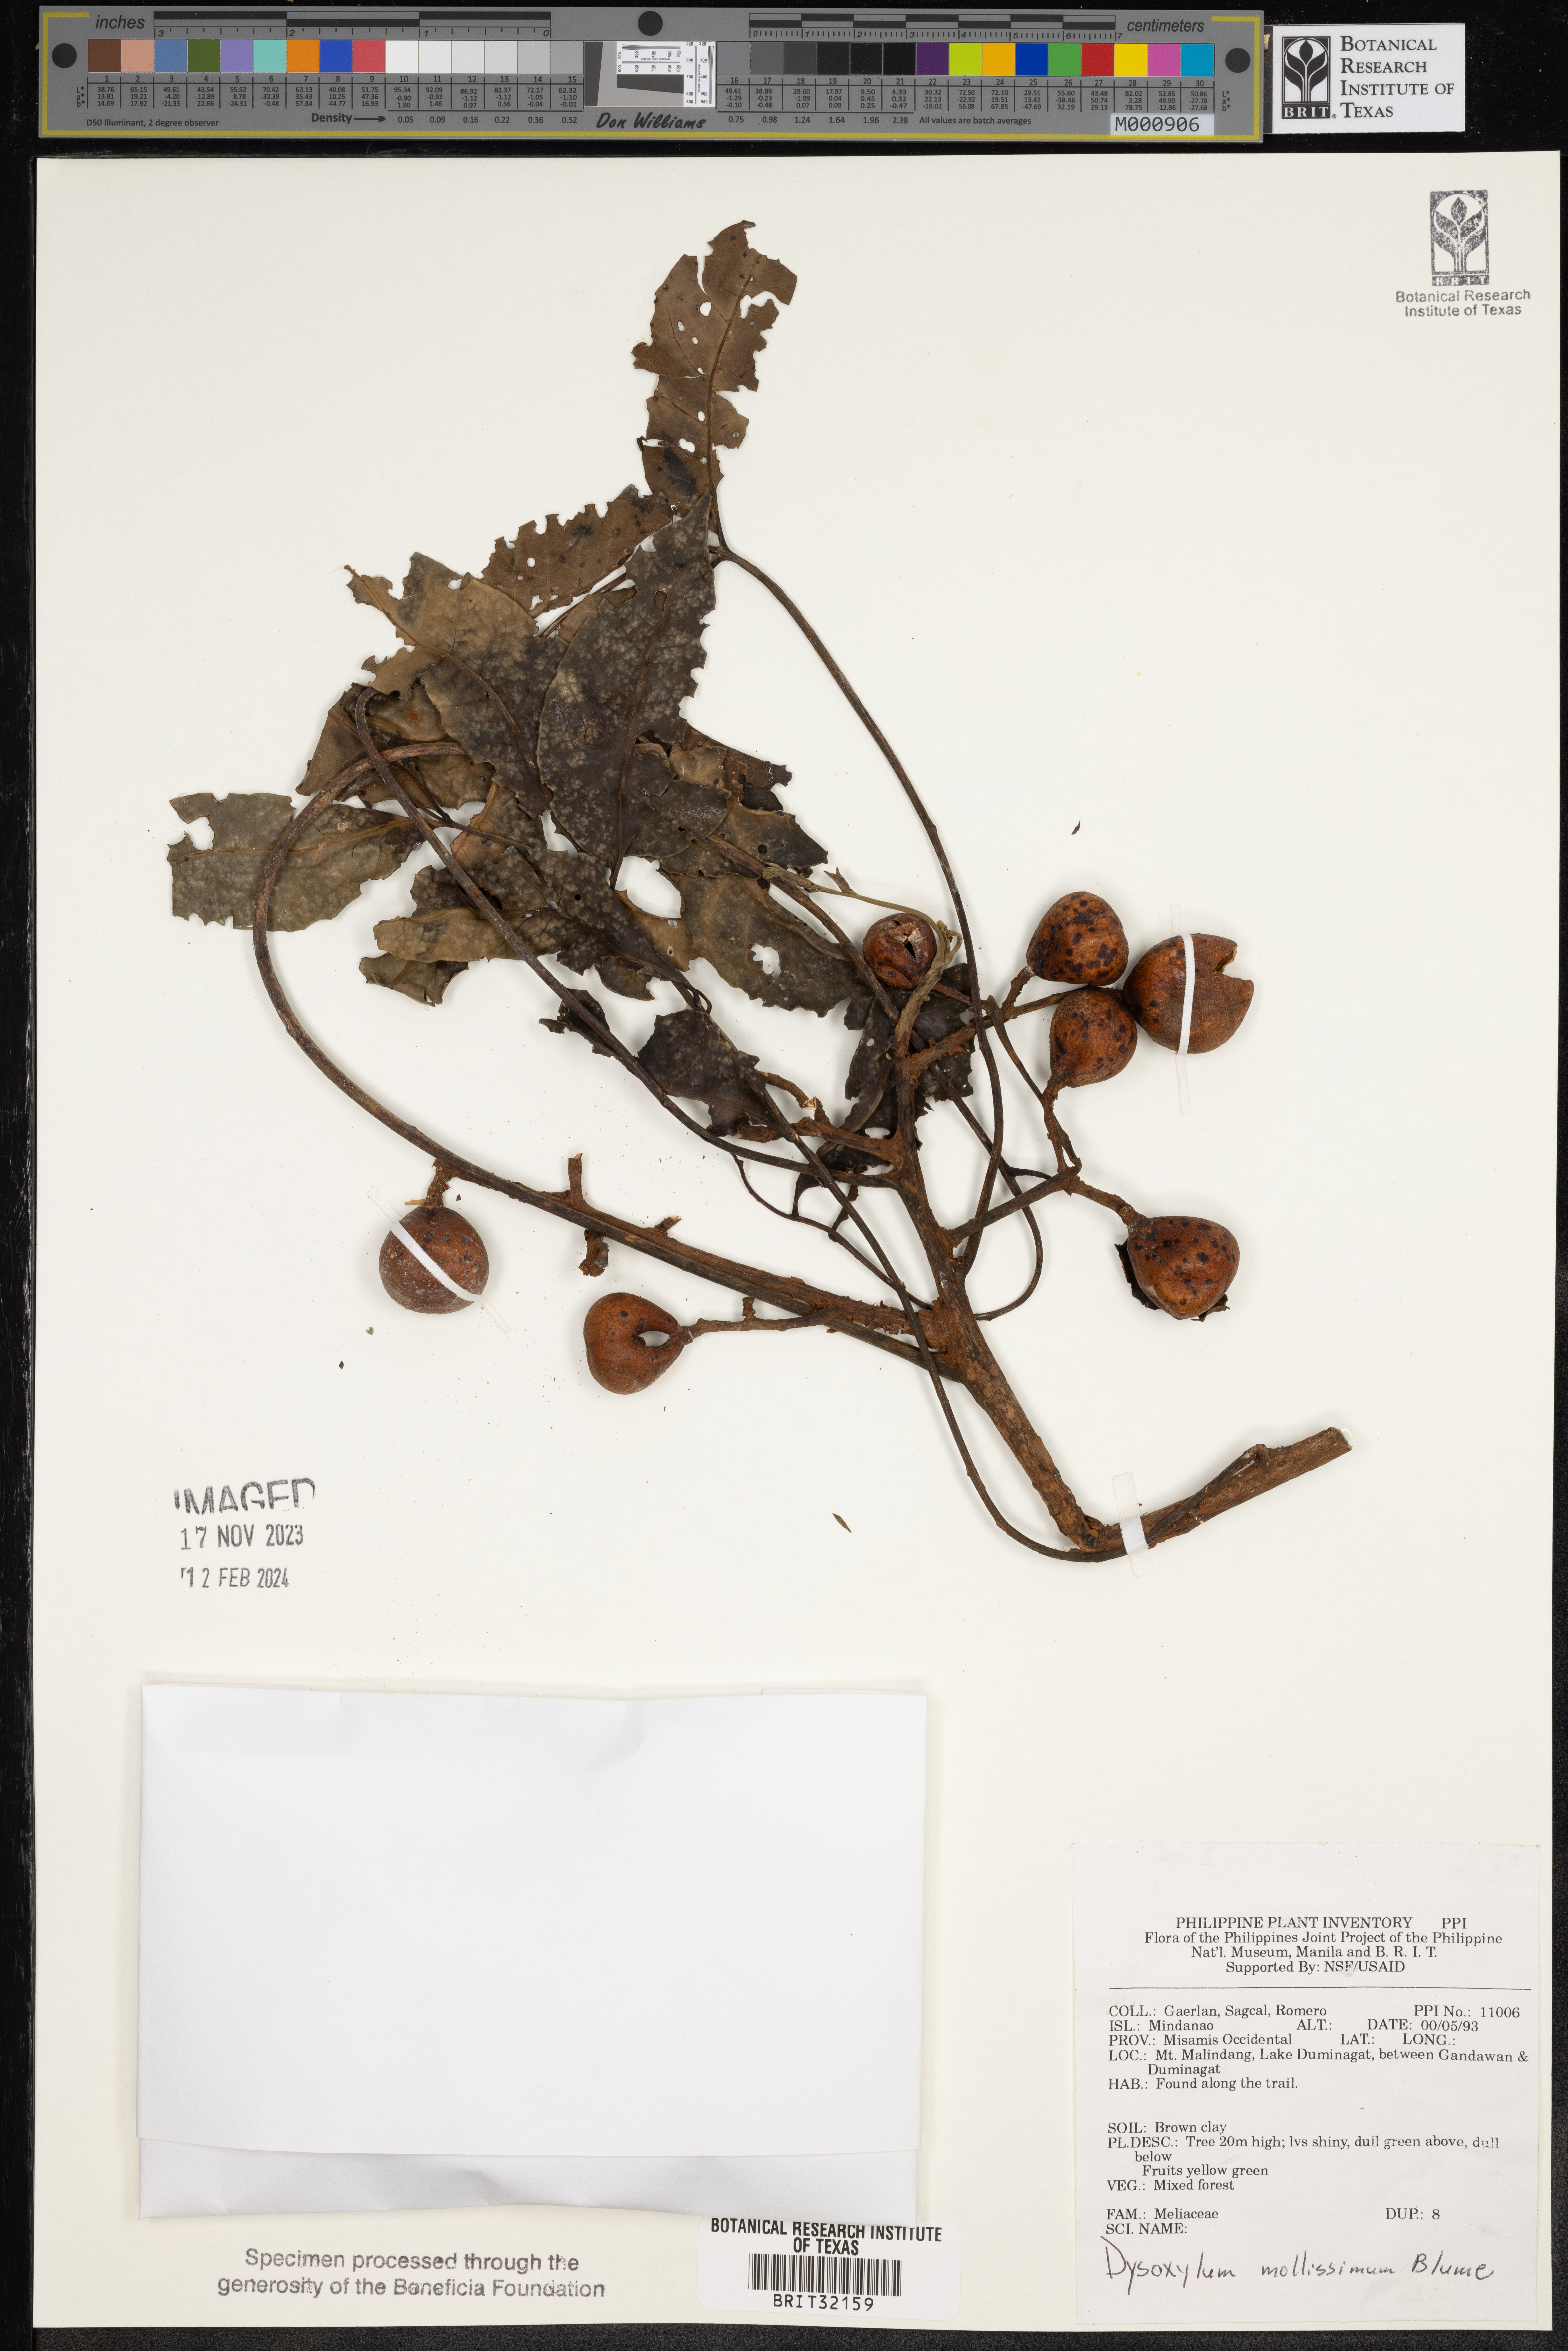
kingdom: Plantae
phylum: Tracheophyta
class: Magnoliopsida
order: Sapindales
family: Meliaceae
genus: Dysoxylum
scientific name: Dysoxylum mollissimum
